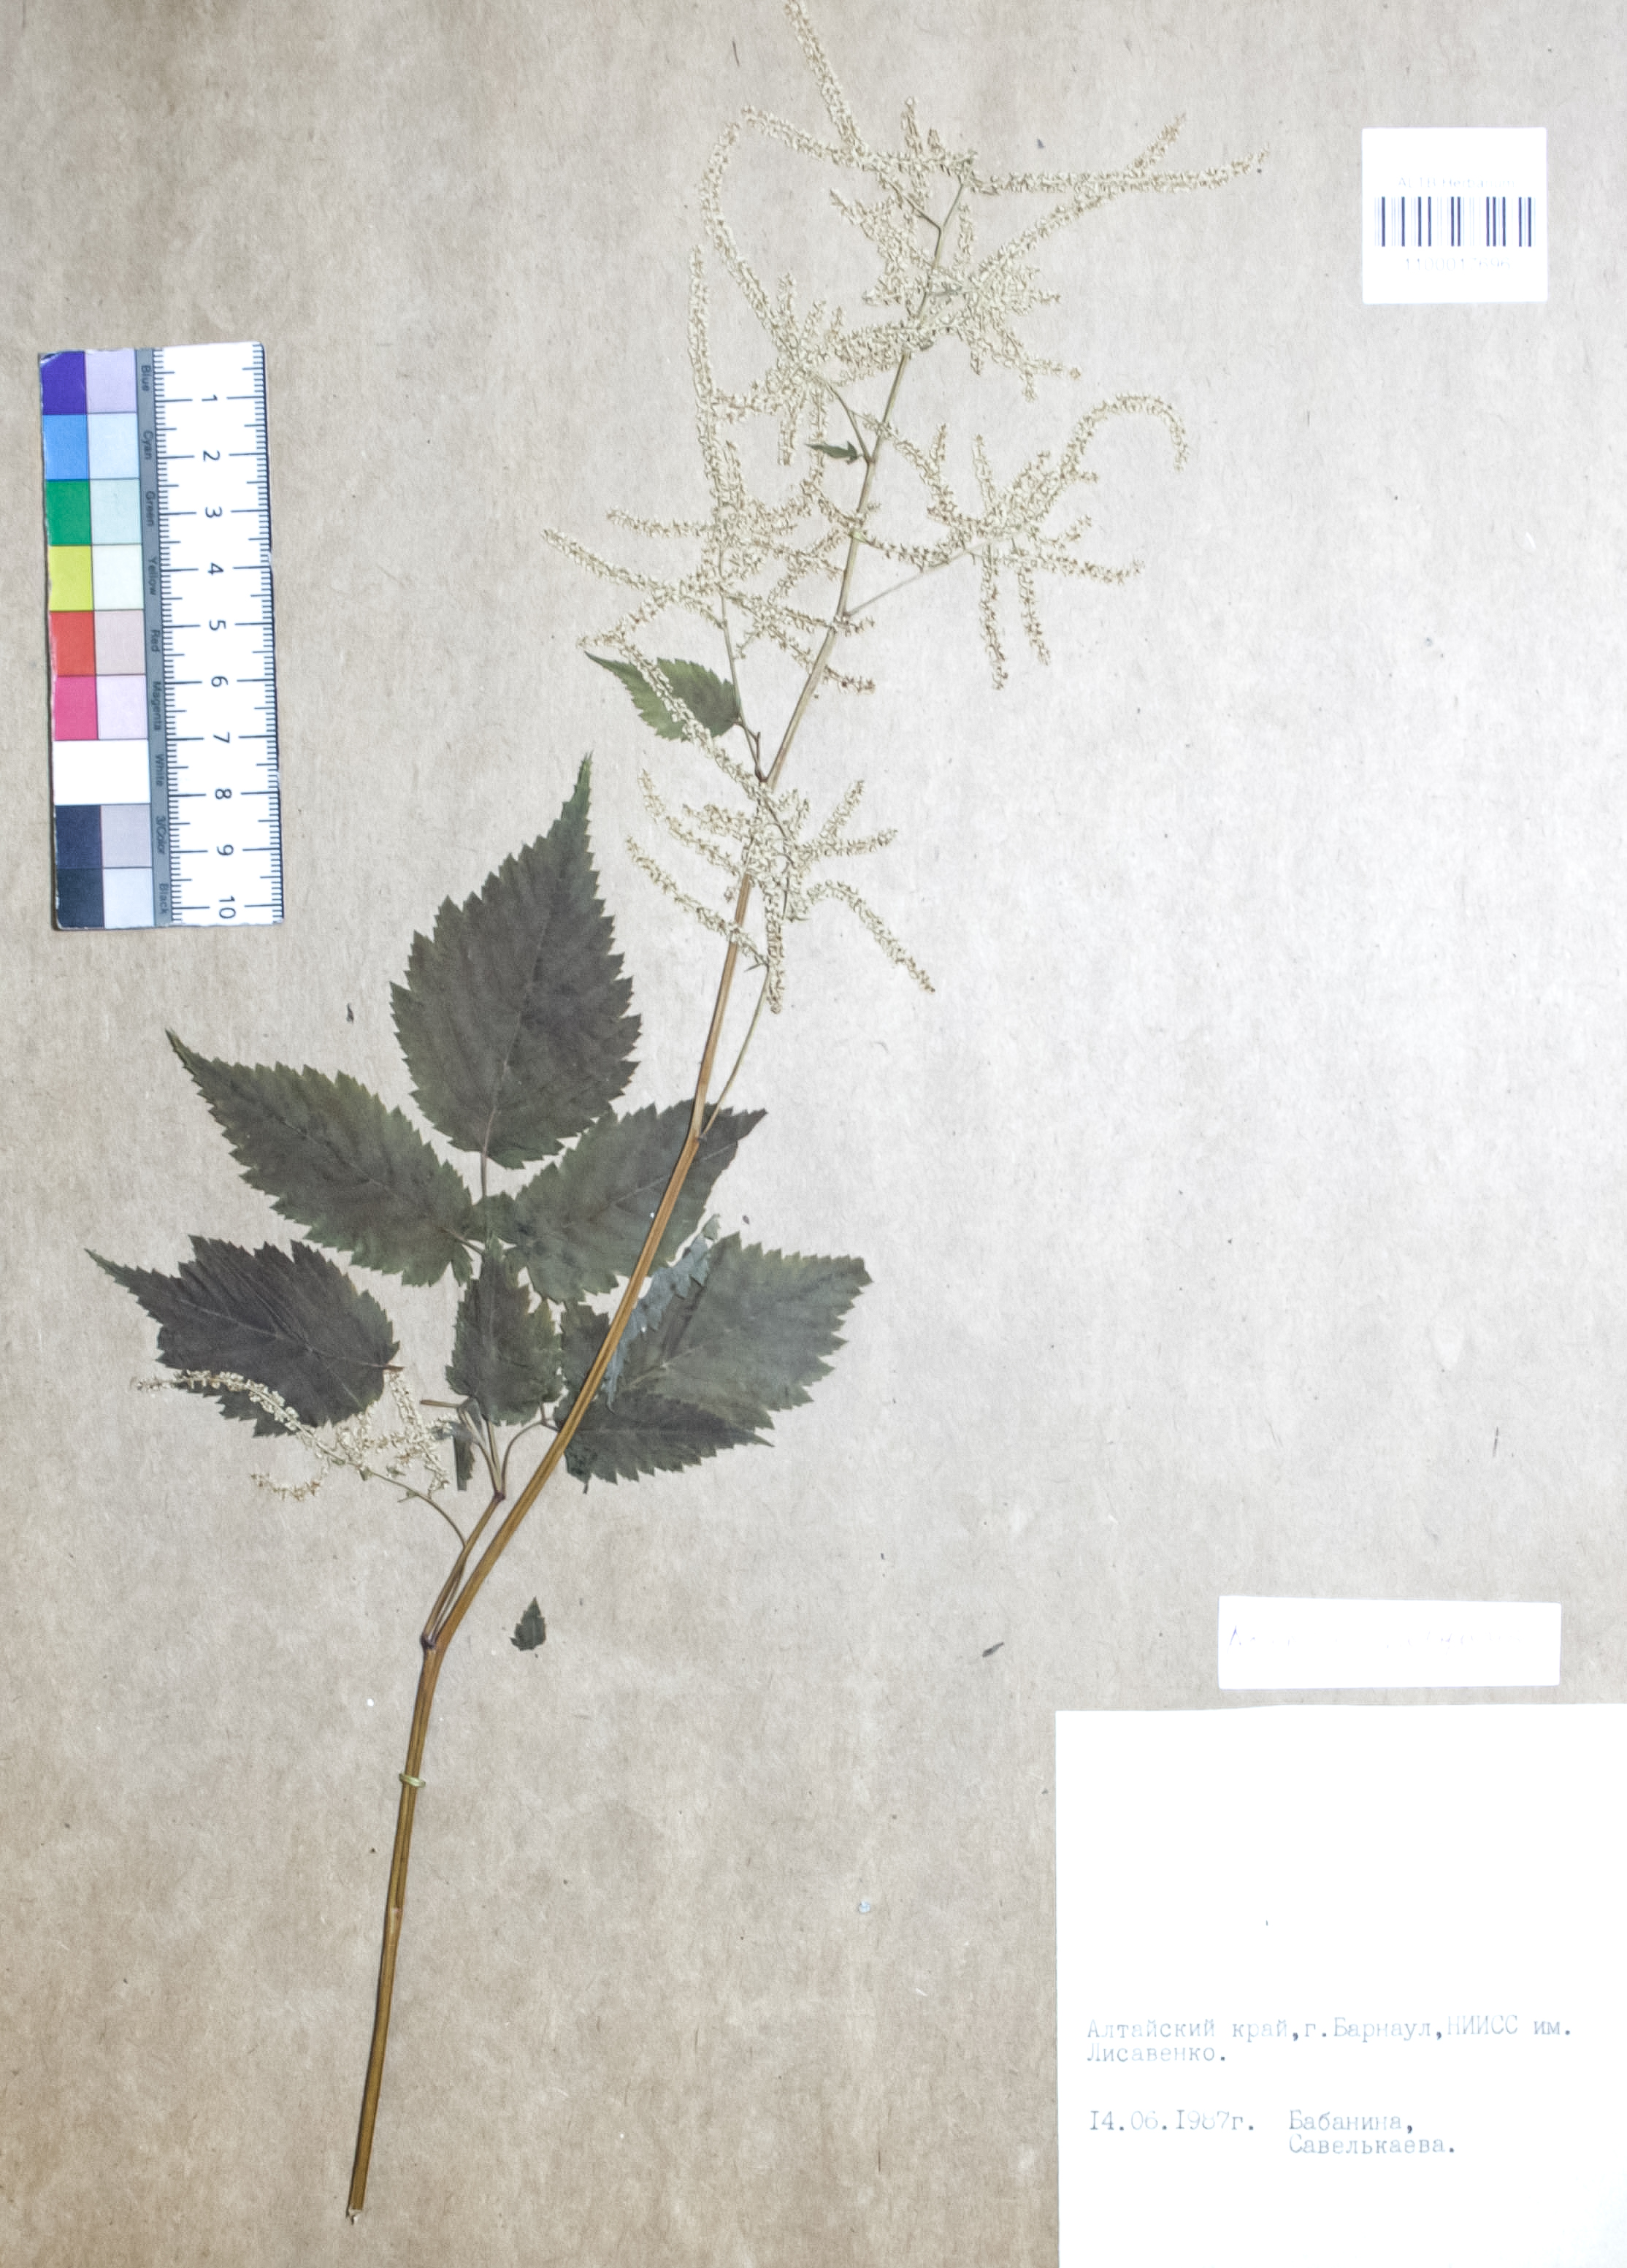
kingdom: Plantae
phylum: Tracheophyta
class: Magnoliopsida
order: Rosales
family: Rosaceae
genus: Aruncus
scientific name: Aruncus
